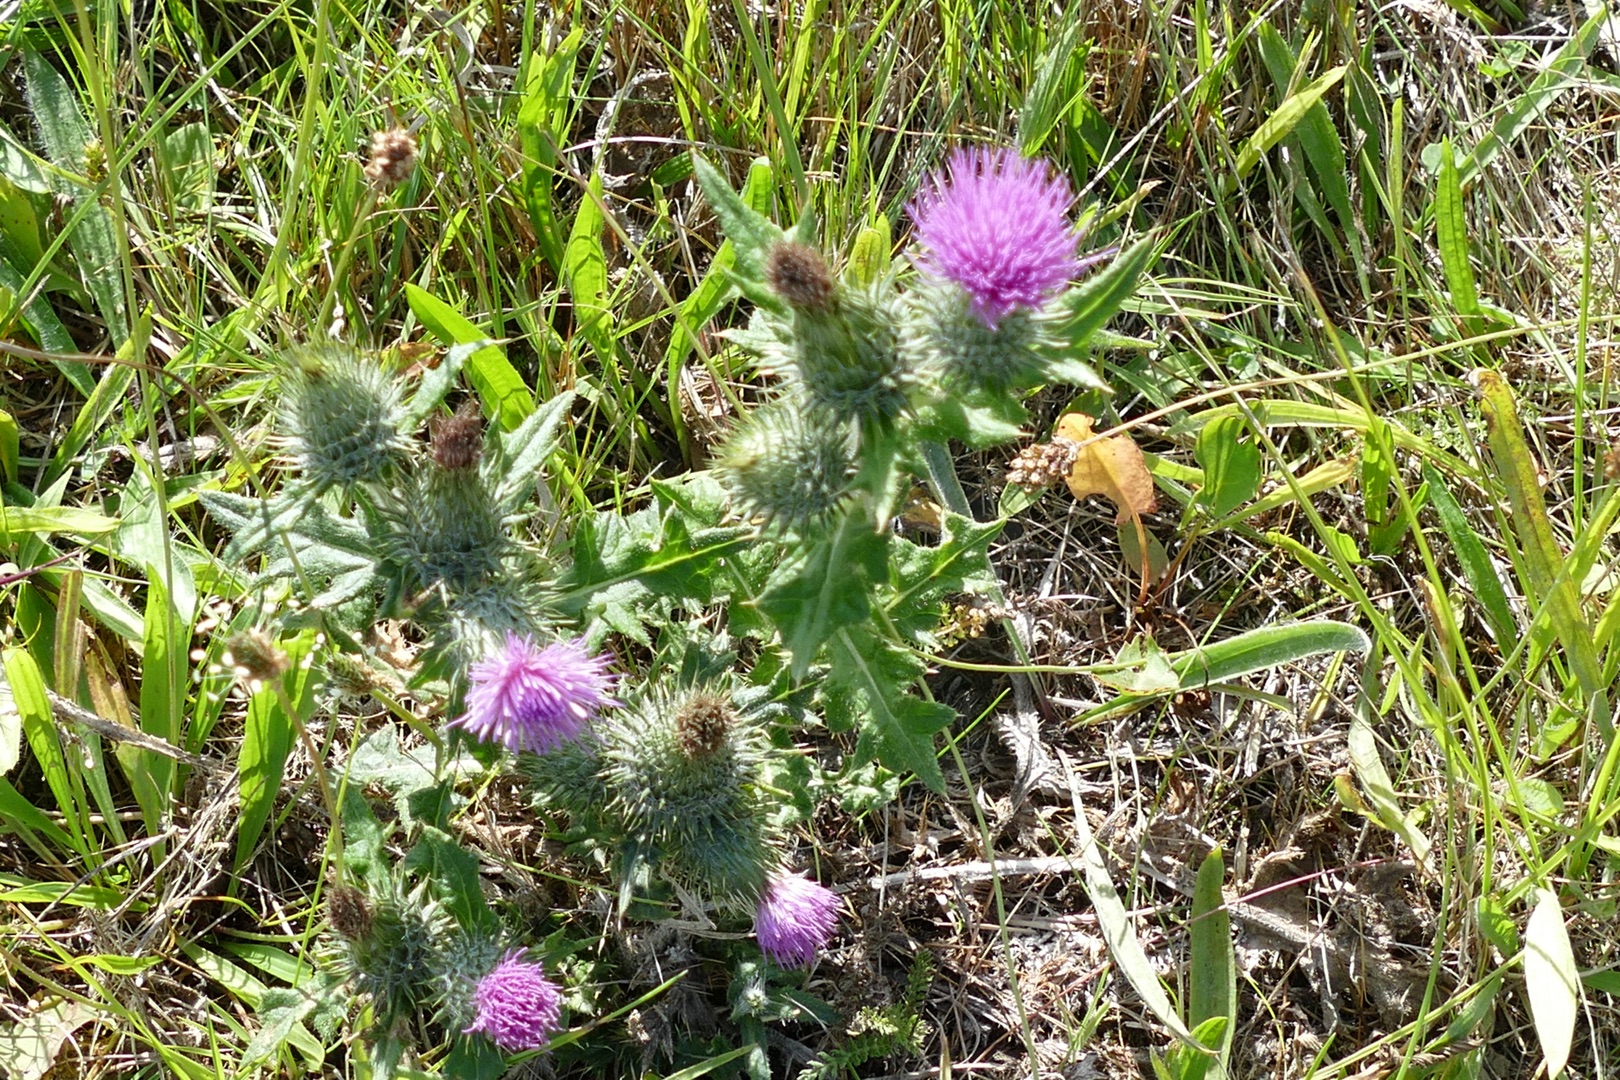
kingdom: Plantae
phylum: Tracheophyta
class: Magnoliopsida
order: Asterales
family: Asteraceae
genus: Cirsium
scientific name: Cirsium vulgare
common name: Horse-tidsel
